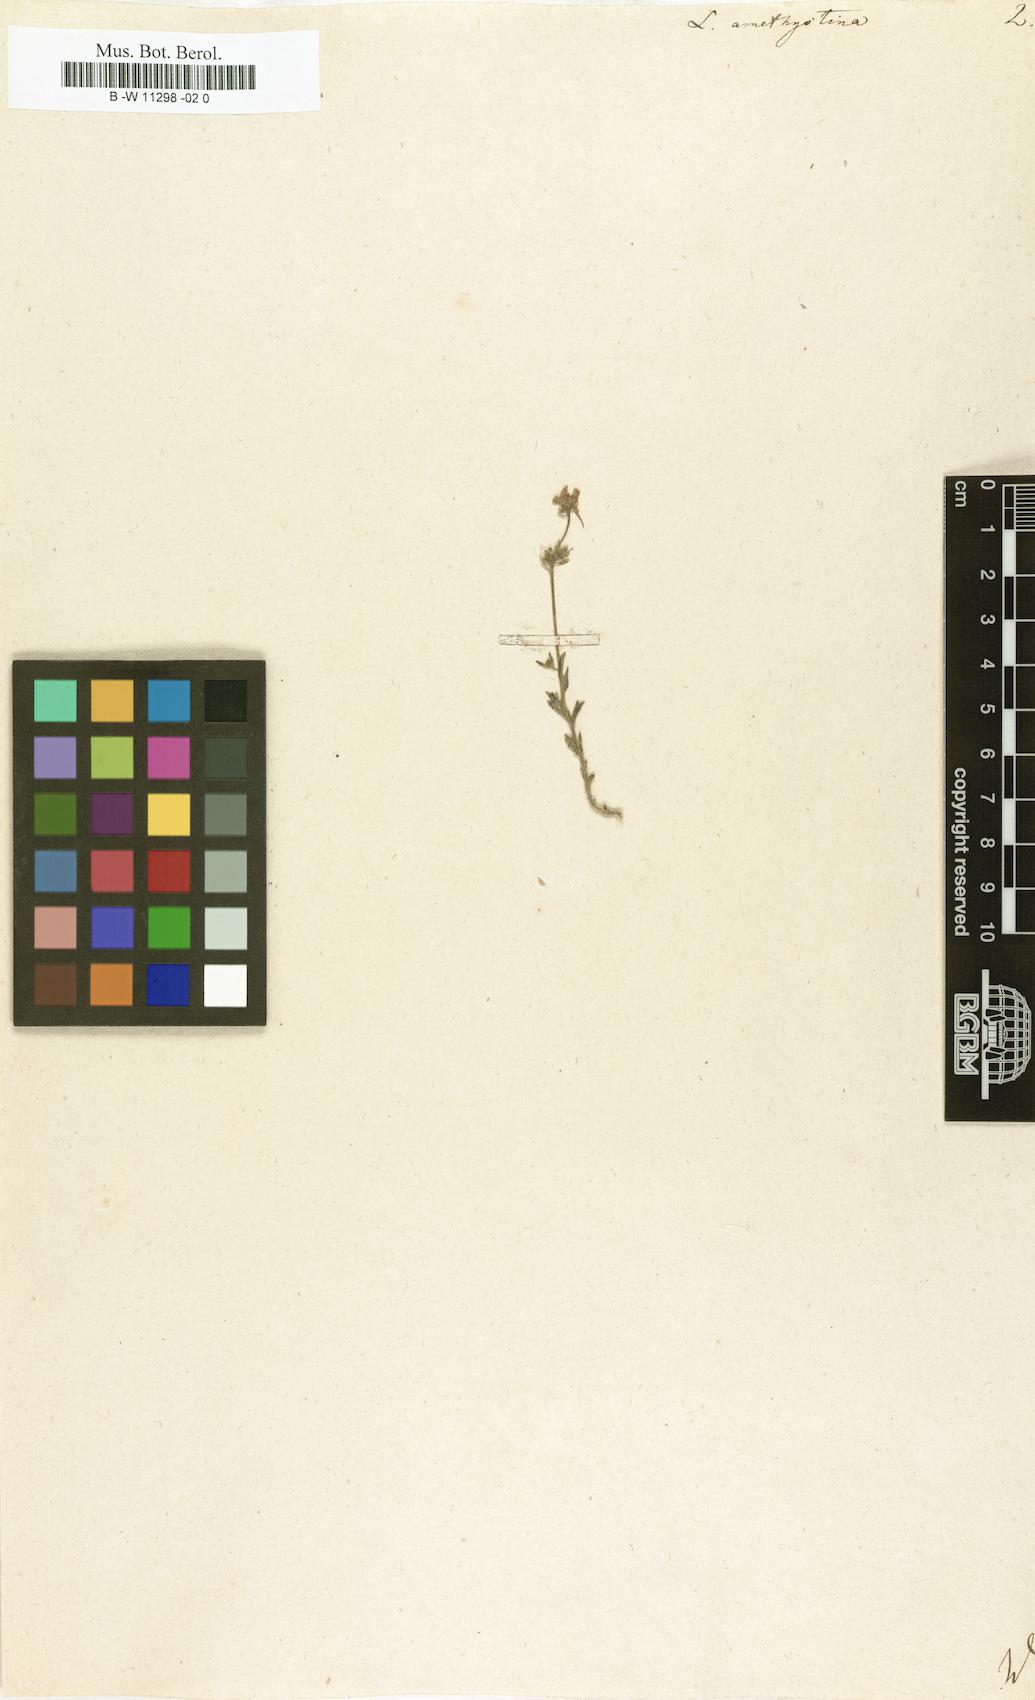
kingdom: Plantae
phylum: Tracheophyta
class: Magnoliopsida
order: Lamiales
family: Plantaginaceae
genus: Linaria
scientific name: Linaria incarnata
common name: Annual toadflax
